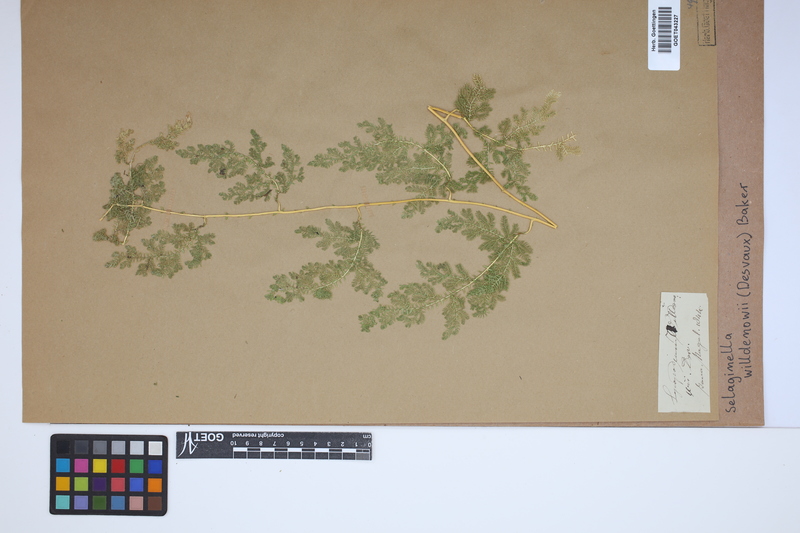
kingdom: Plantae
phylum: Tracheophyta
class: Lycopodiopsida
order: Selaginellales
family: Selaginellaceae
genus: Selaginella
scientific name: Selaginella willdenowii
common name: Willdenow's spikemoss
